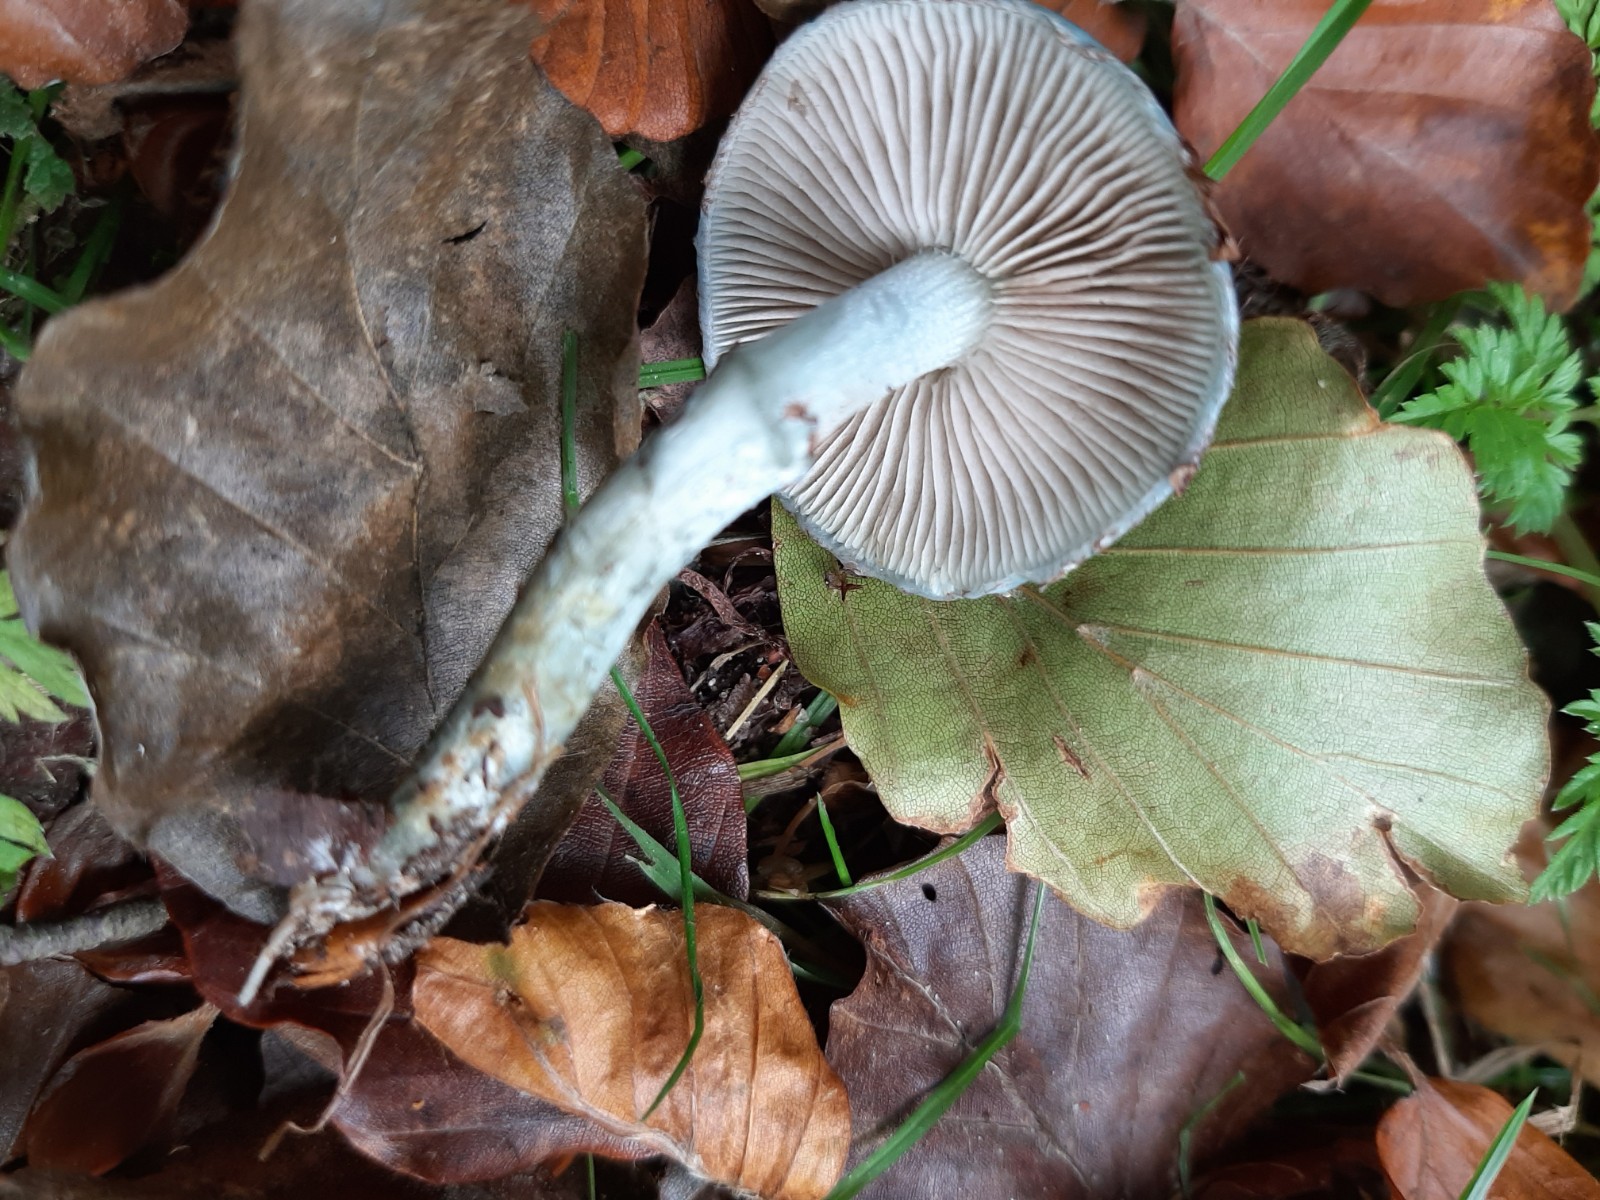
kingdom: Fungi
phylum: Basidiomycota
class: Agaricomycetes
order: Agaricales
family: Strophariaceae
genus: Stropharia
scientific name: Stropharia cyanea
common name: blågrøn bredblad
